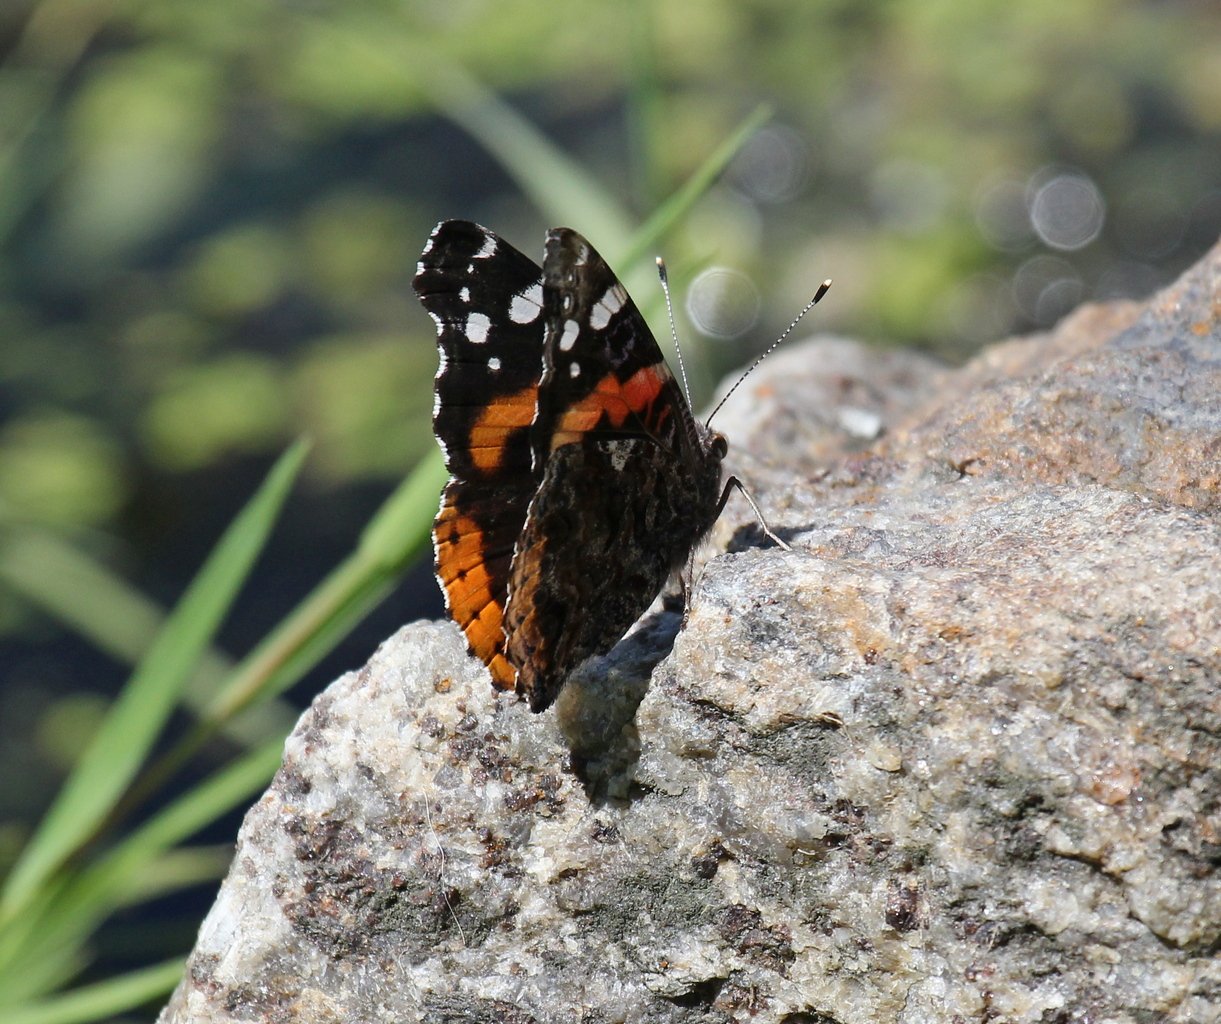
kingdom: Animalia
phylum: Arthropoda
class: Insecta
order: Lepidoptera
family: Nymphalidae
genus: Vanessa
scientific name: Vanessa atalanta
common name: Red Admiral
